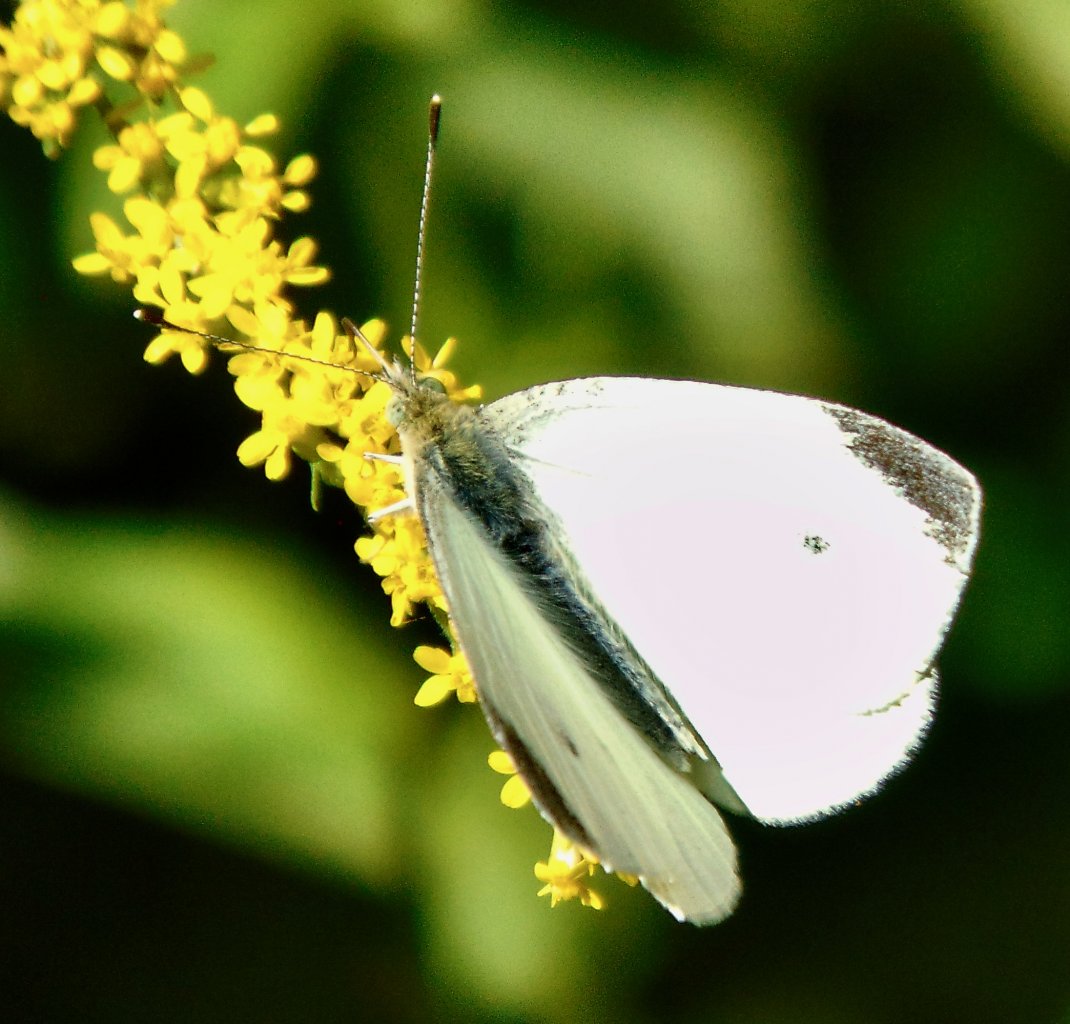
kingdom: Animalia
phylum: Arthropoda
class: Insecta
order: Lepidoptera
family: Pieridae
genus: Pieris
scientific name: Pieris rapae
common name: Cabbage White
